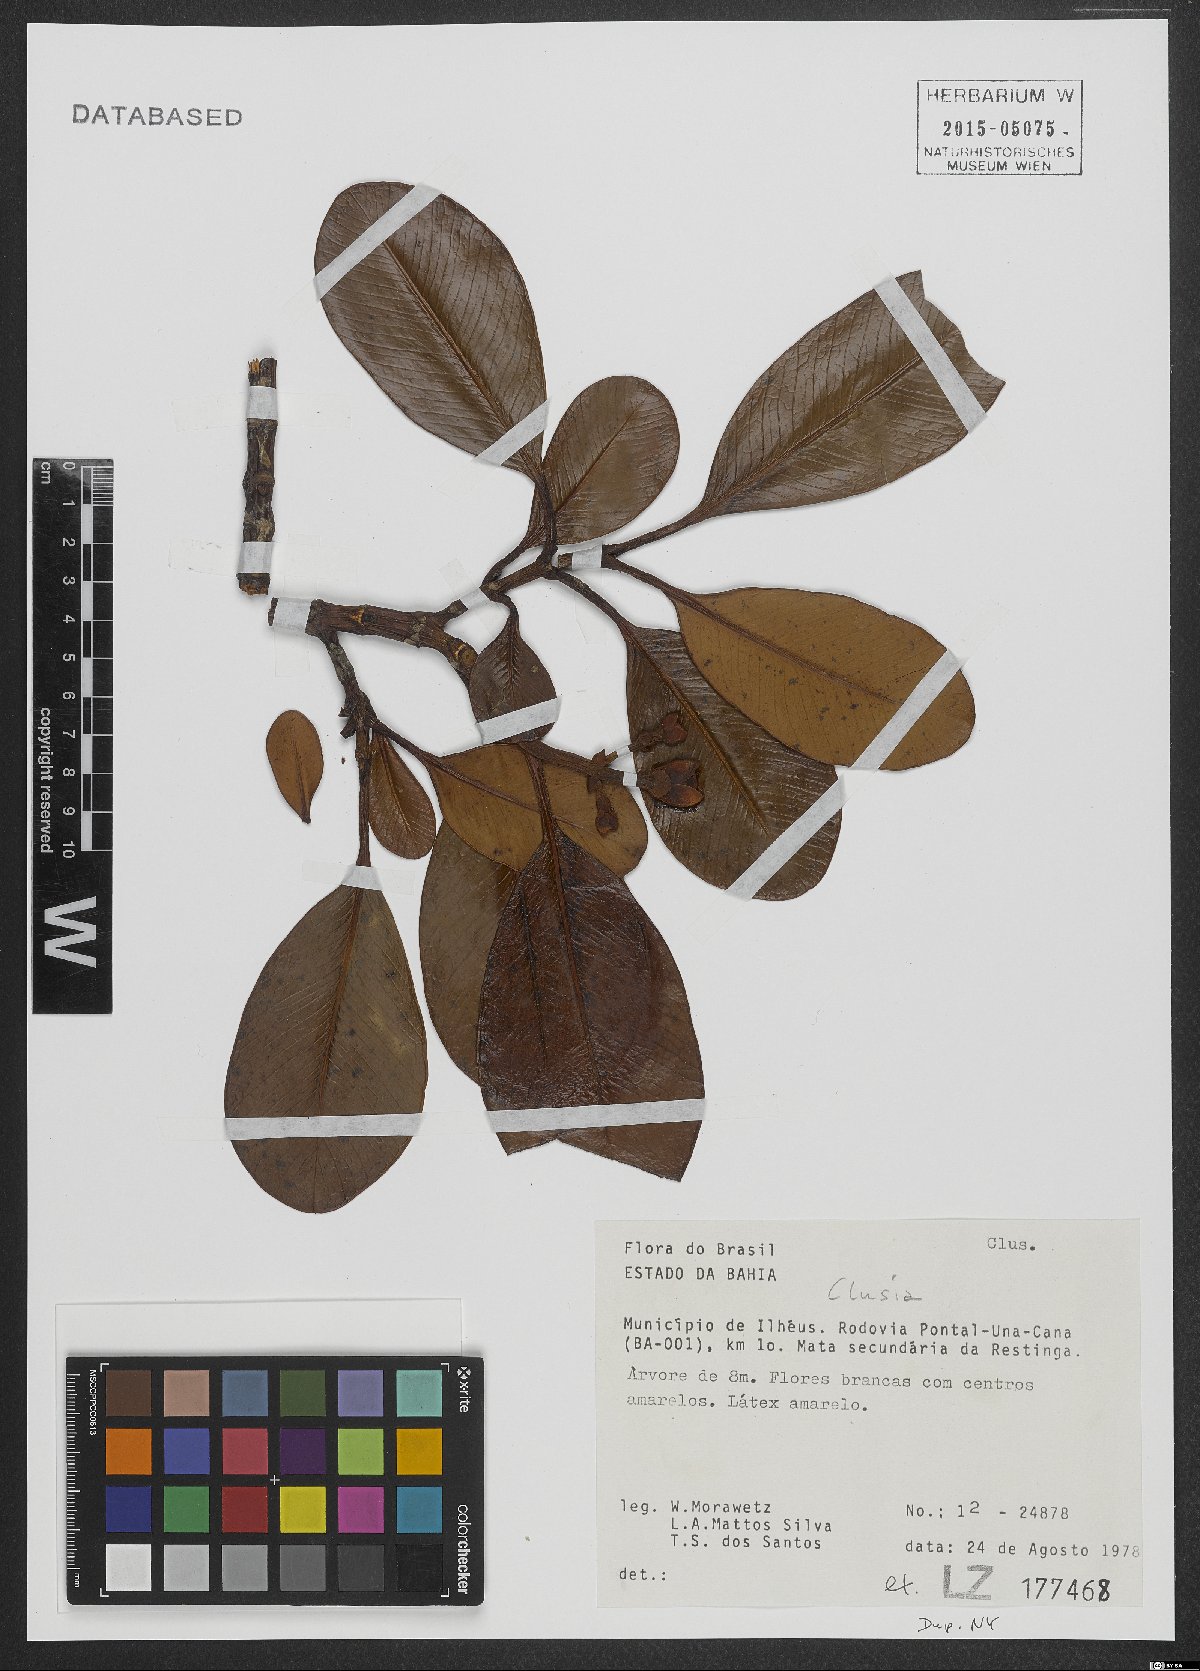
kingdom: Plantae
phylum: Tracheophyta
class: Magnoliopsida
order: Malpighiales
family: Clusiaceae
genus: Clusia
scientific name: Clusia
